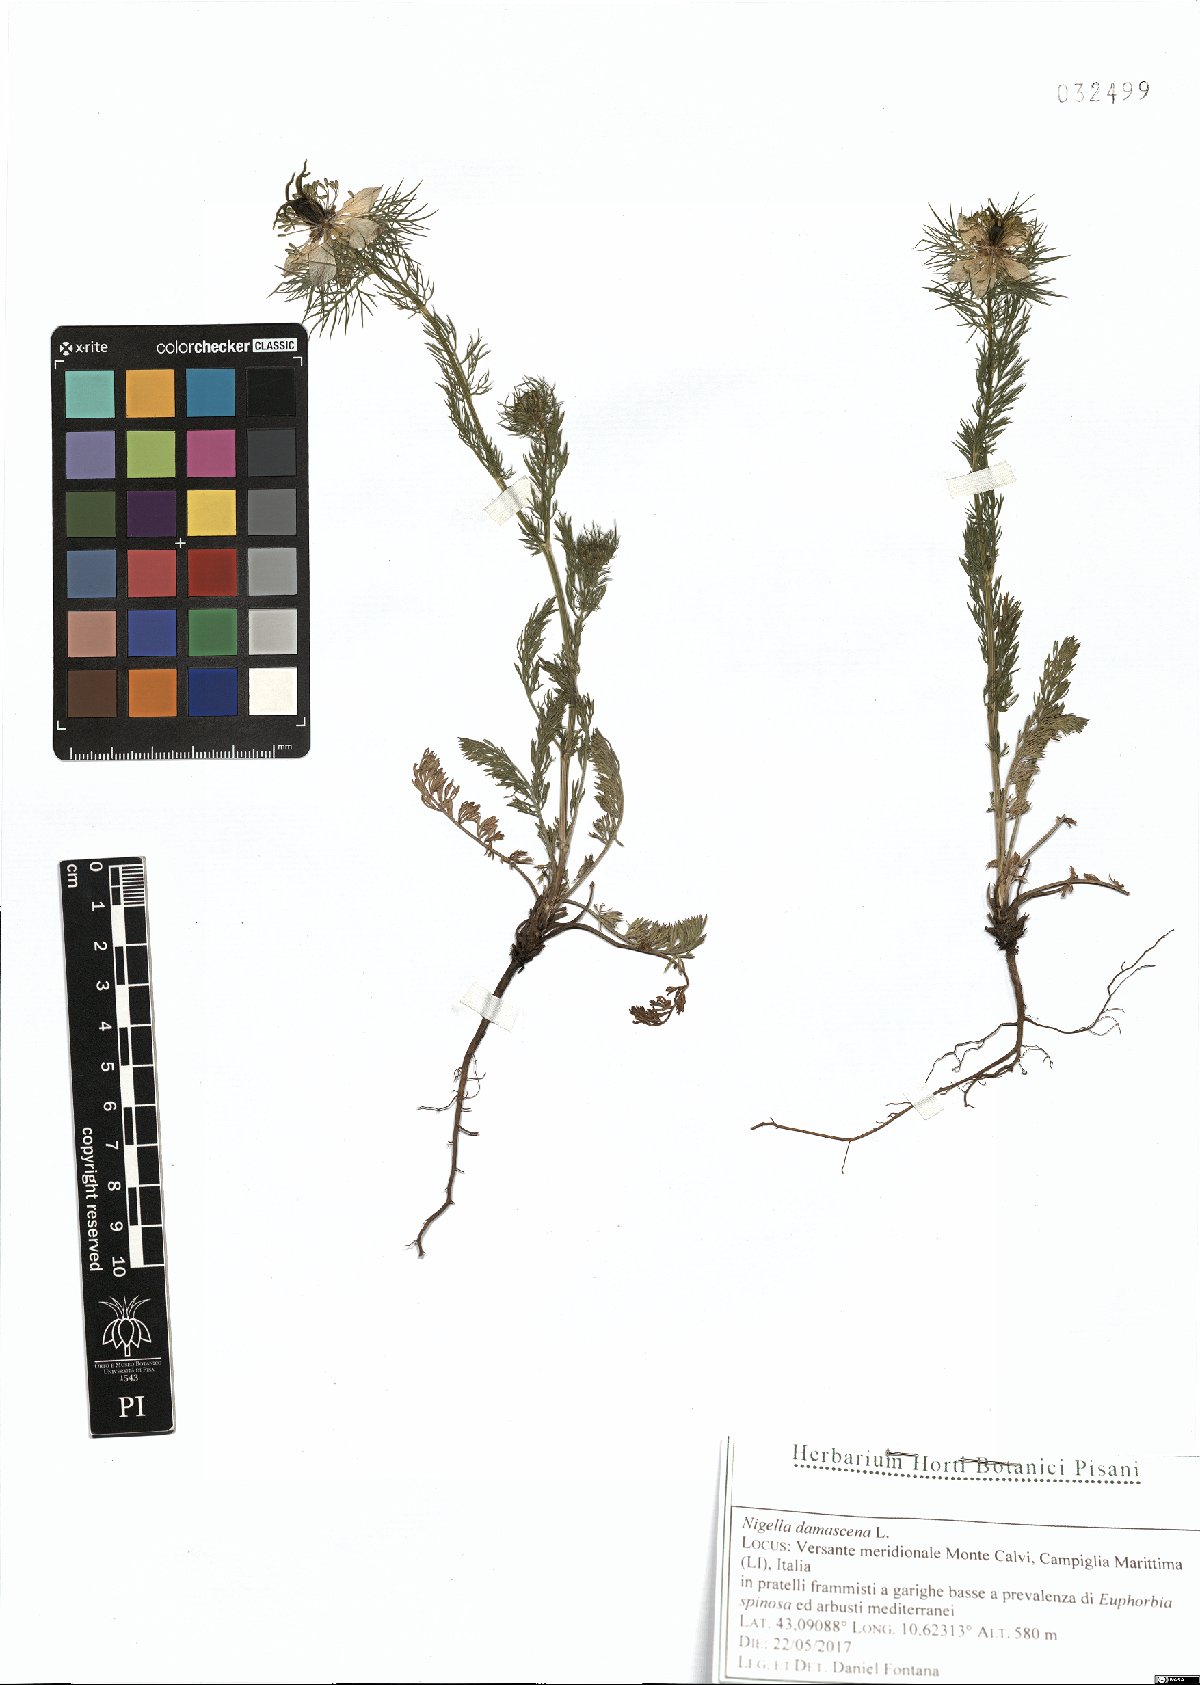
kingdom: Plantae
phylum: Tracheophyta
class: Magnoliopsida
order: Ranunculales
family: Ranunculaceae
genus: Nigella
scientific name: Nigella damascena
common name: Love-in-a-mist
